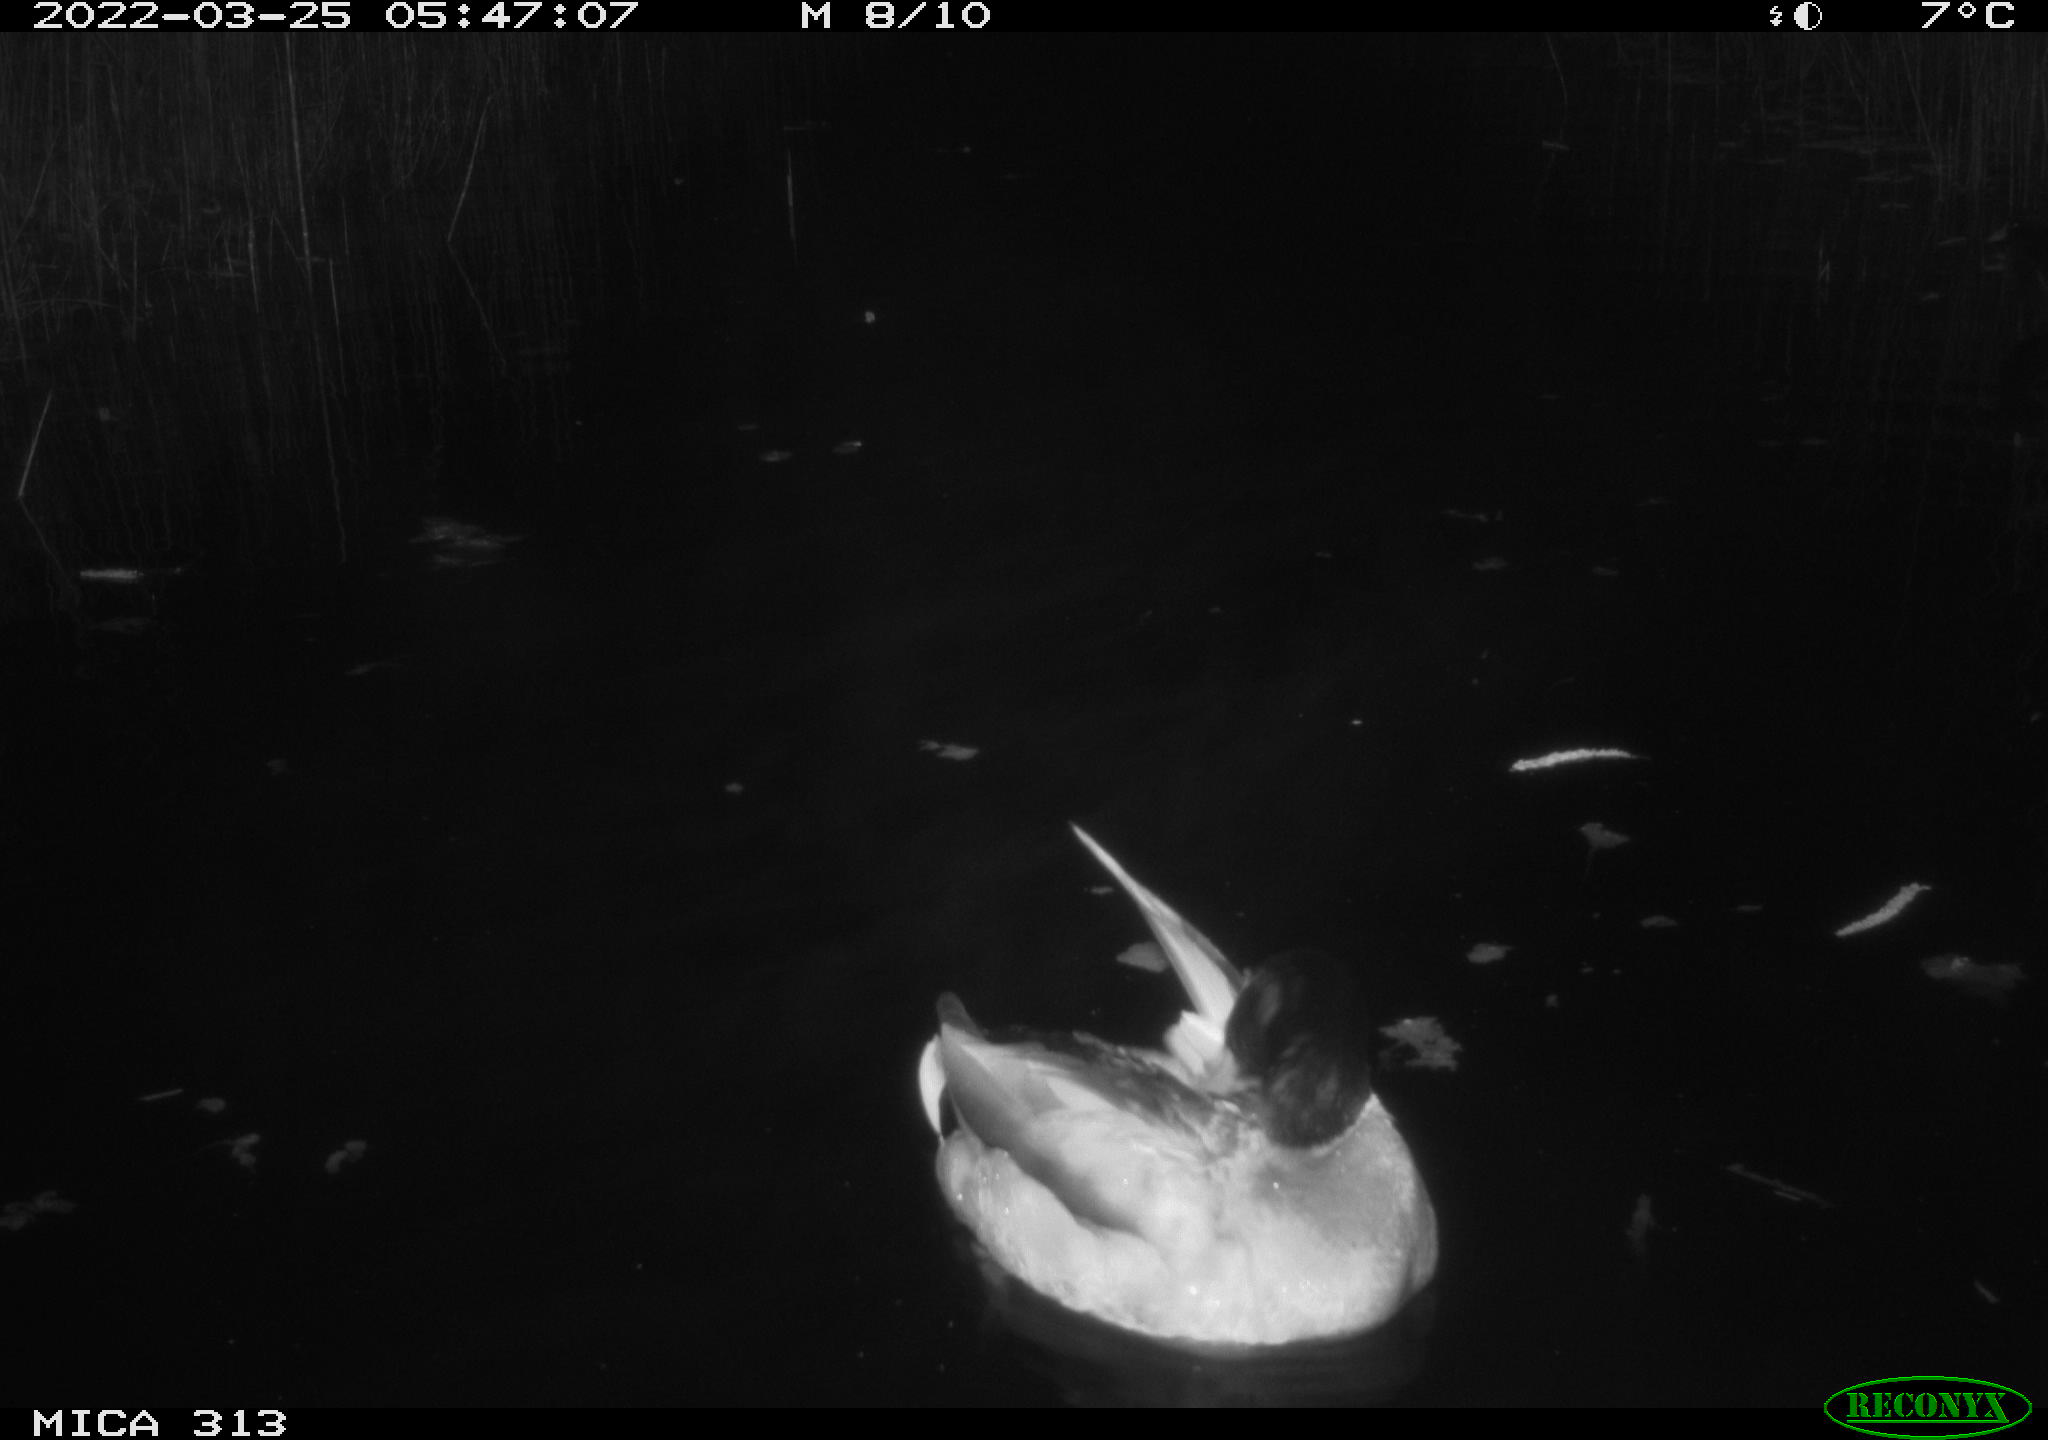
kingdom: Animalia
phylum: Chordata
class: Aves
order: Anseriformes
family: Anatidae
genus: Anas
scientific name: Anas platyrhynchos
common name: Mallard
